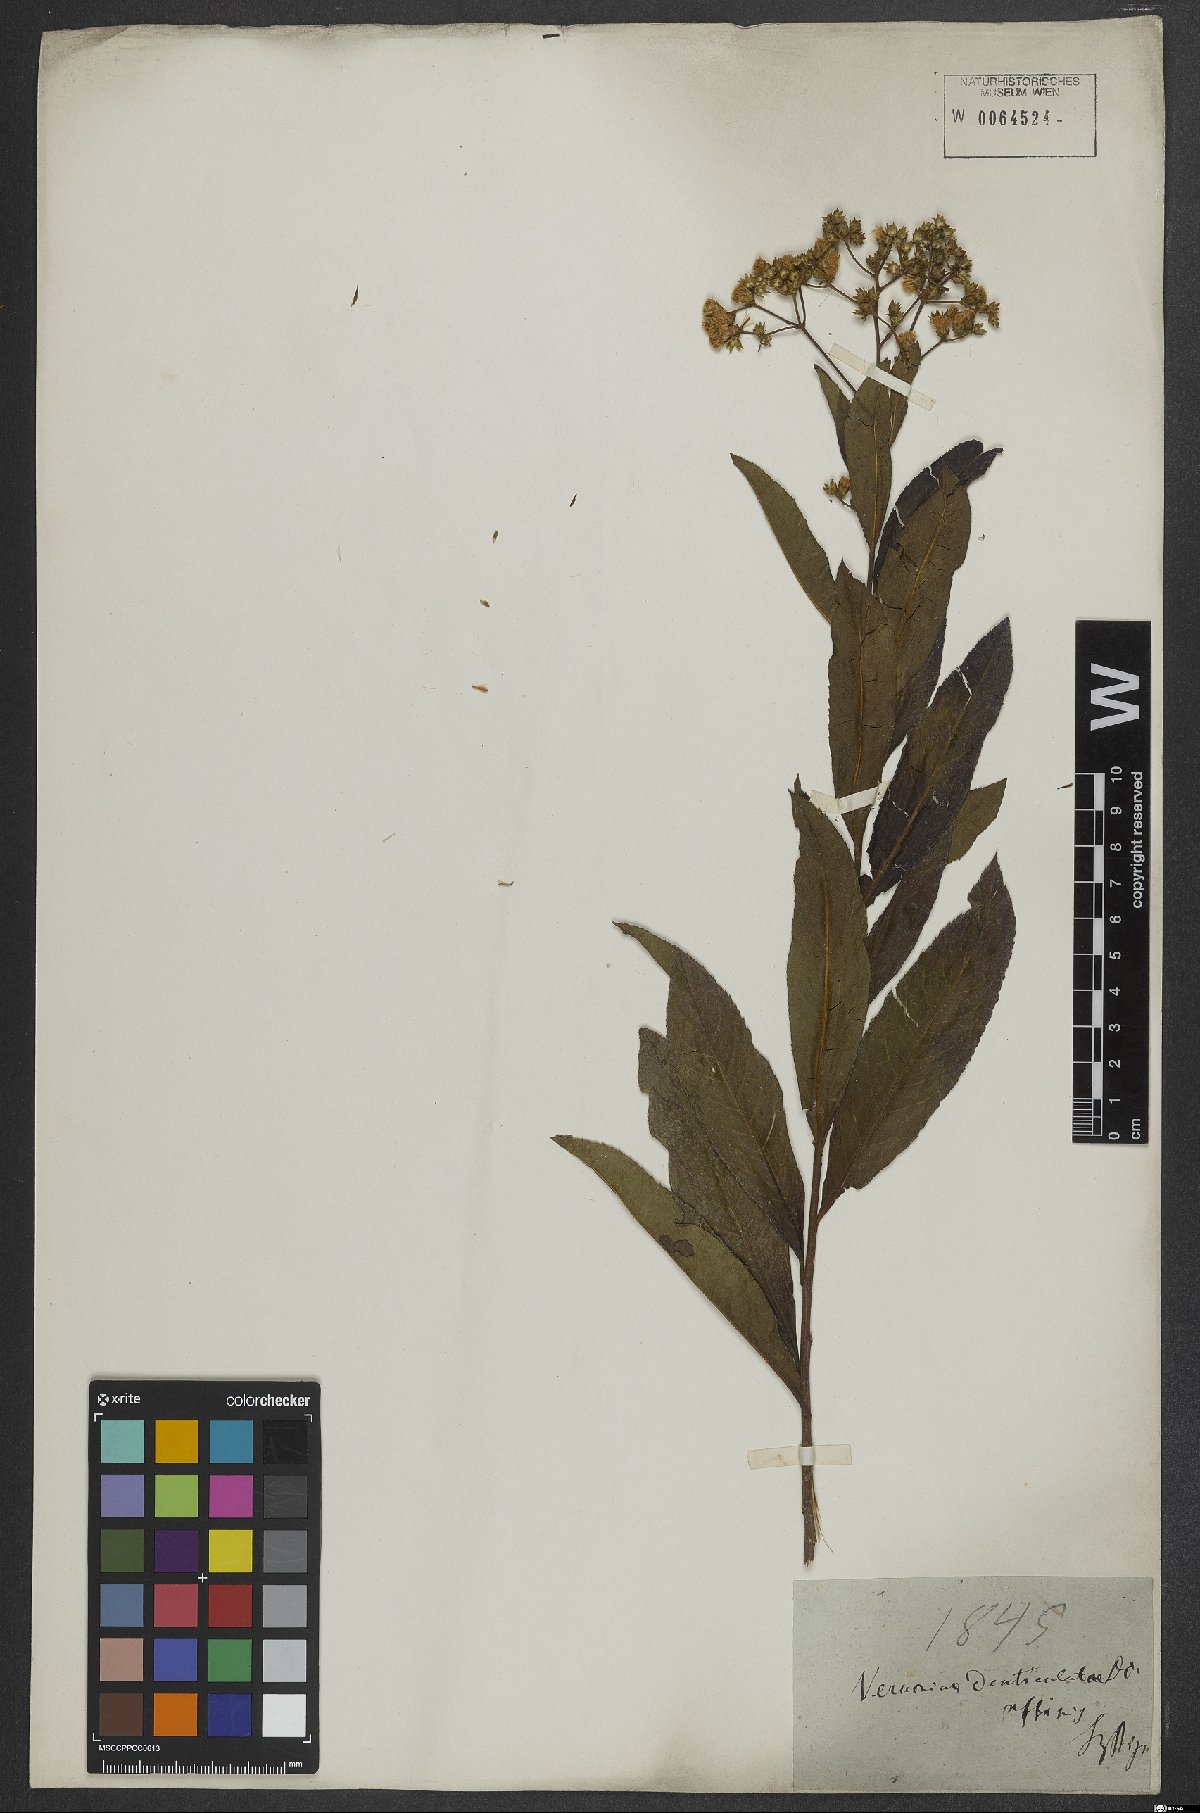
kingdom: Plantae
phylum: Tracheophyta
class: Magnoliopsida
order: Asterales
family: Asteraceae
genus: Vernonanthura
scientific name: Vernonanthura beyrichii
